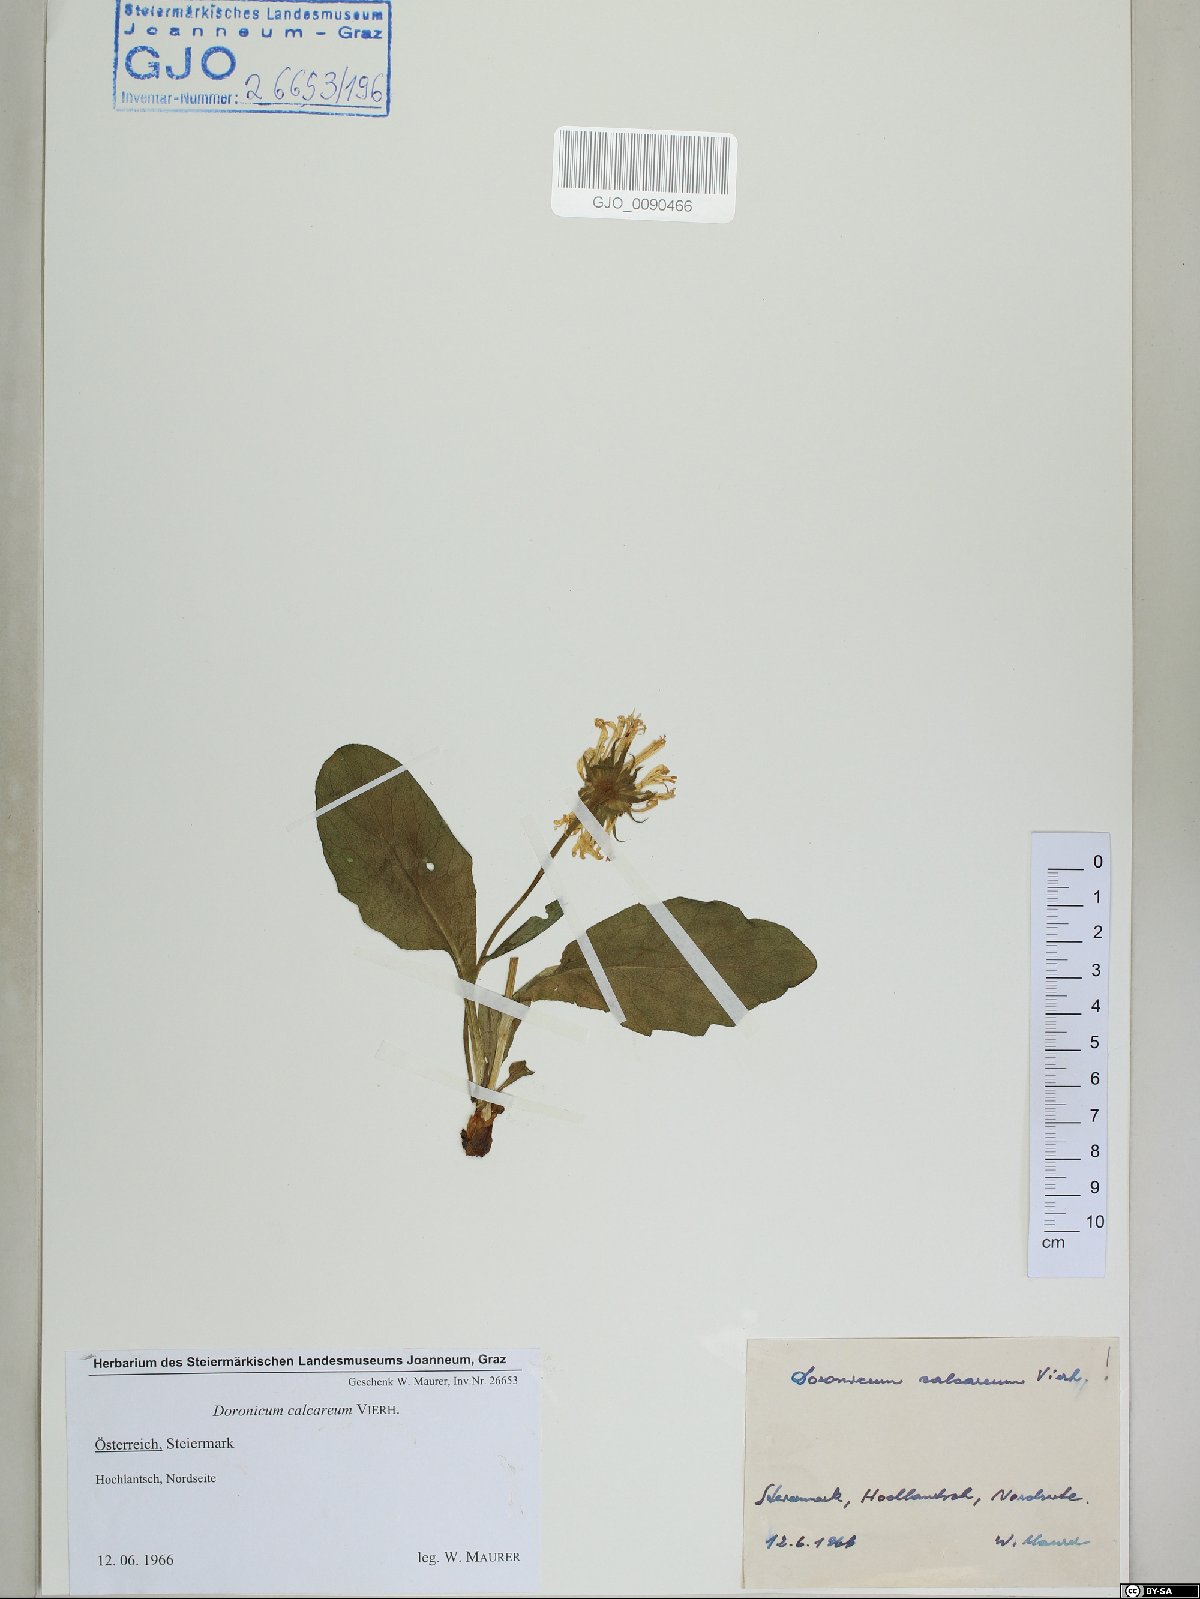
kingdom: Plantae
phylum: Tracheophyta
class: Magnoliopsida
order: Asterales
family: Asteraceae
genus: Doronicum
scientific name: Doronicum glaciale
